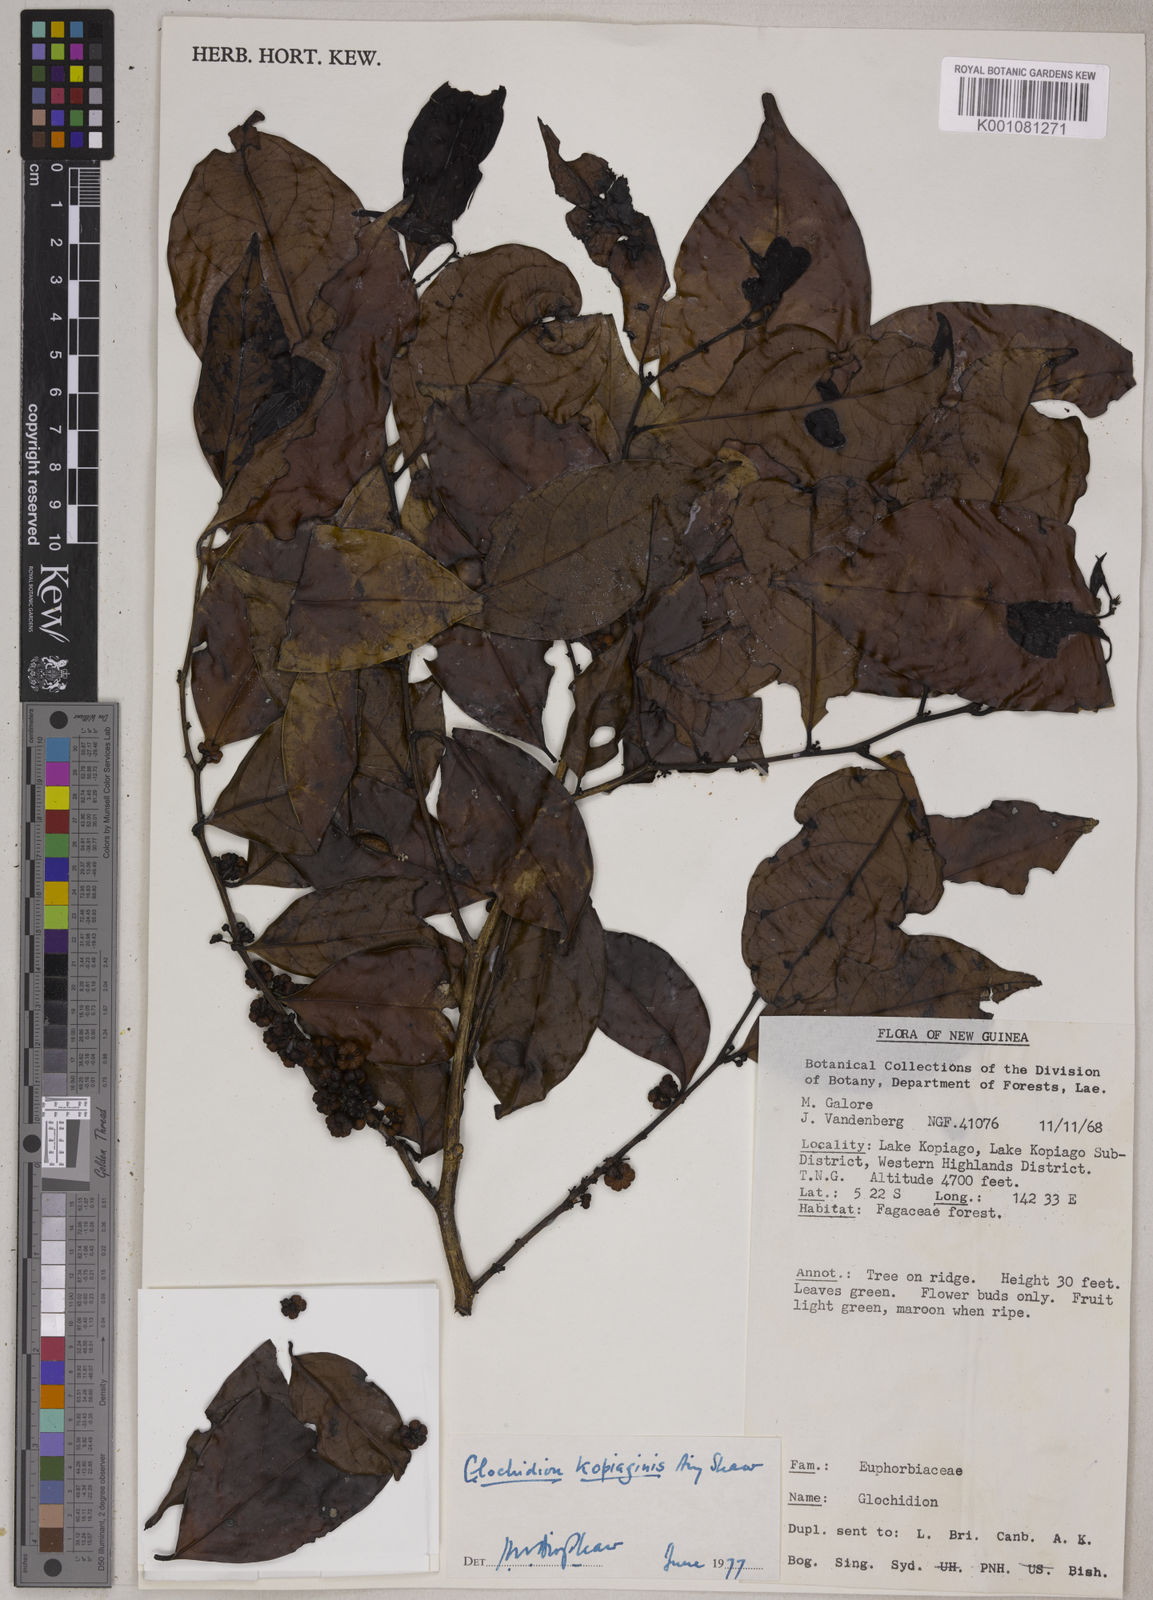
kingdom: Plantae
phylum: Tracheophyta
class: Magnoliopsida
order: Malpighiales
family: Phyllanthaceae
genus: Glochidion
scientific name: Glochidion kopiaginis
